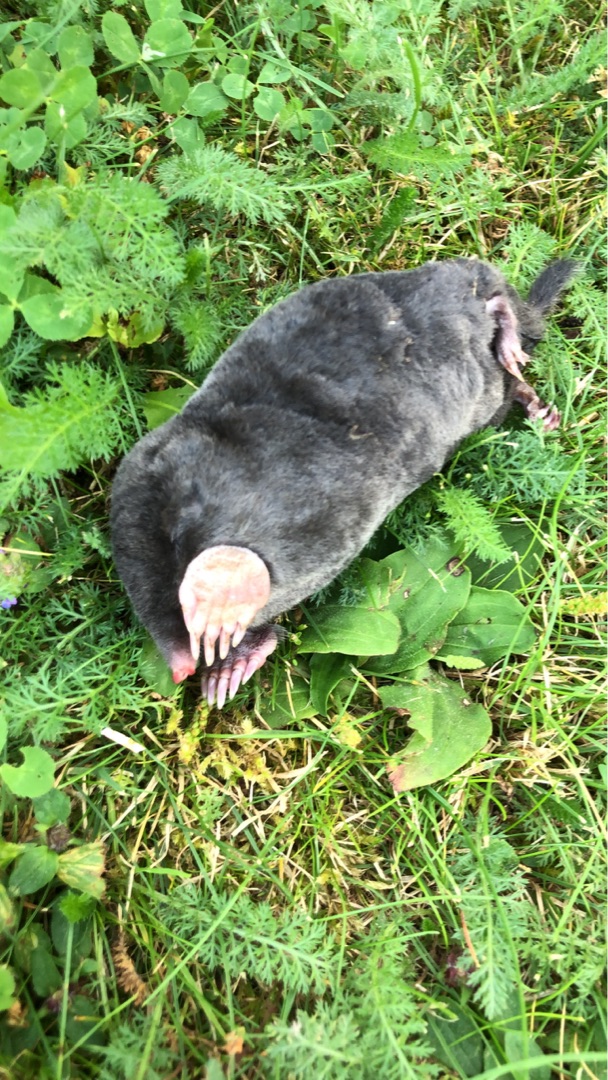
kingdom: Animalia
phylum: Chordata
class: Mammalia
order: Soricomorpha
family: Talpidae
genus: Talpa
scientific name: Talpa europaea
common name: Muldvarp
